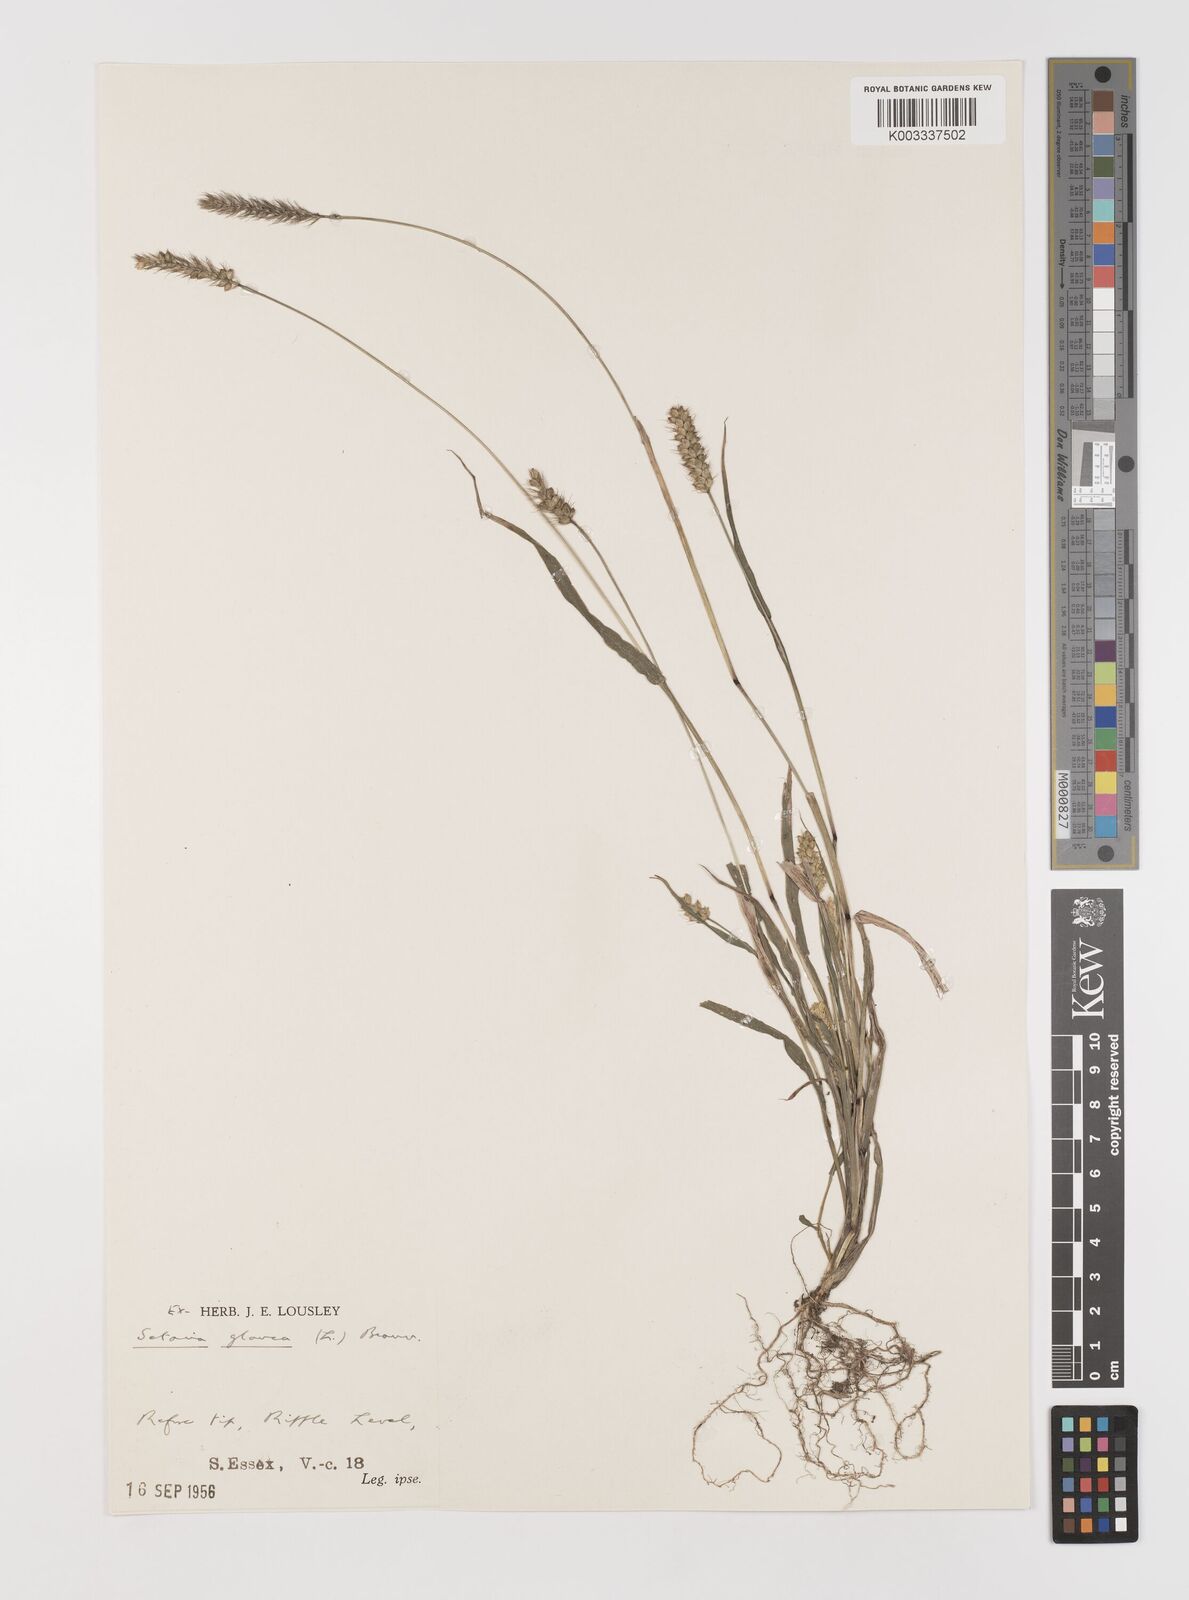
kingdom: Plantae
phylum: Tracheophyta
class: Liliopsida
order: Poales
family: Poaceae
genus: Setaria
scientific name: Setaria pumila
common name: Yellow bristle-grass
